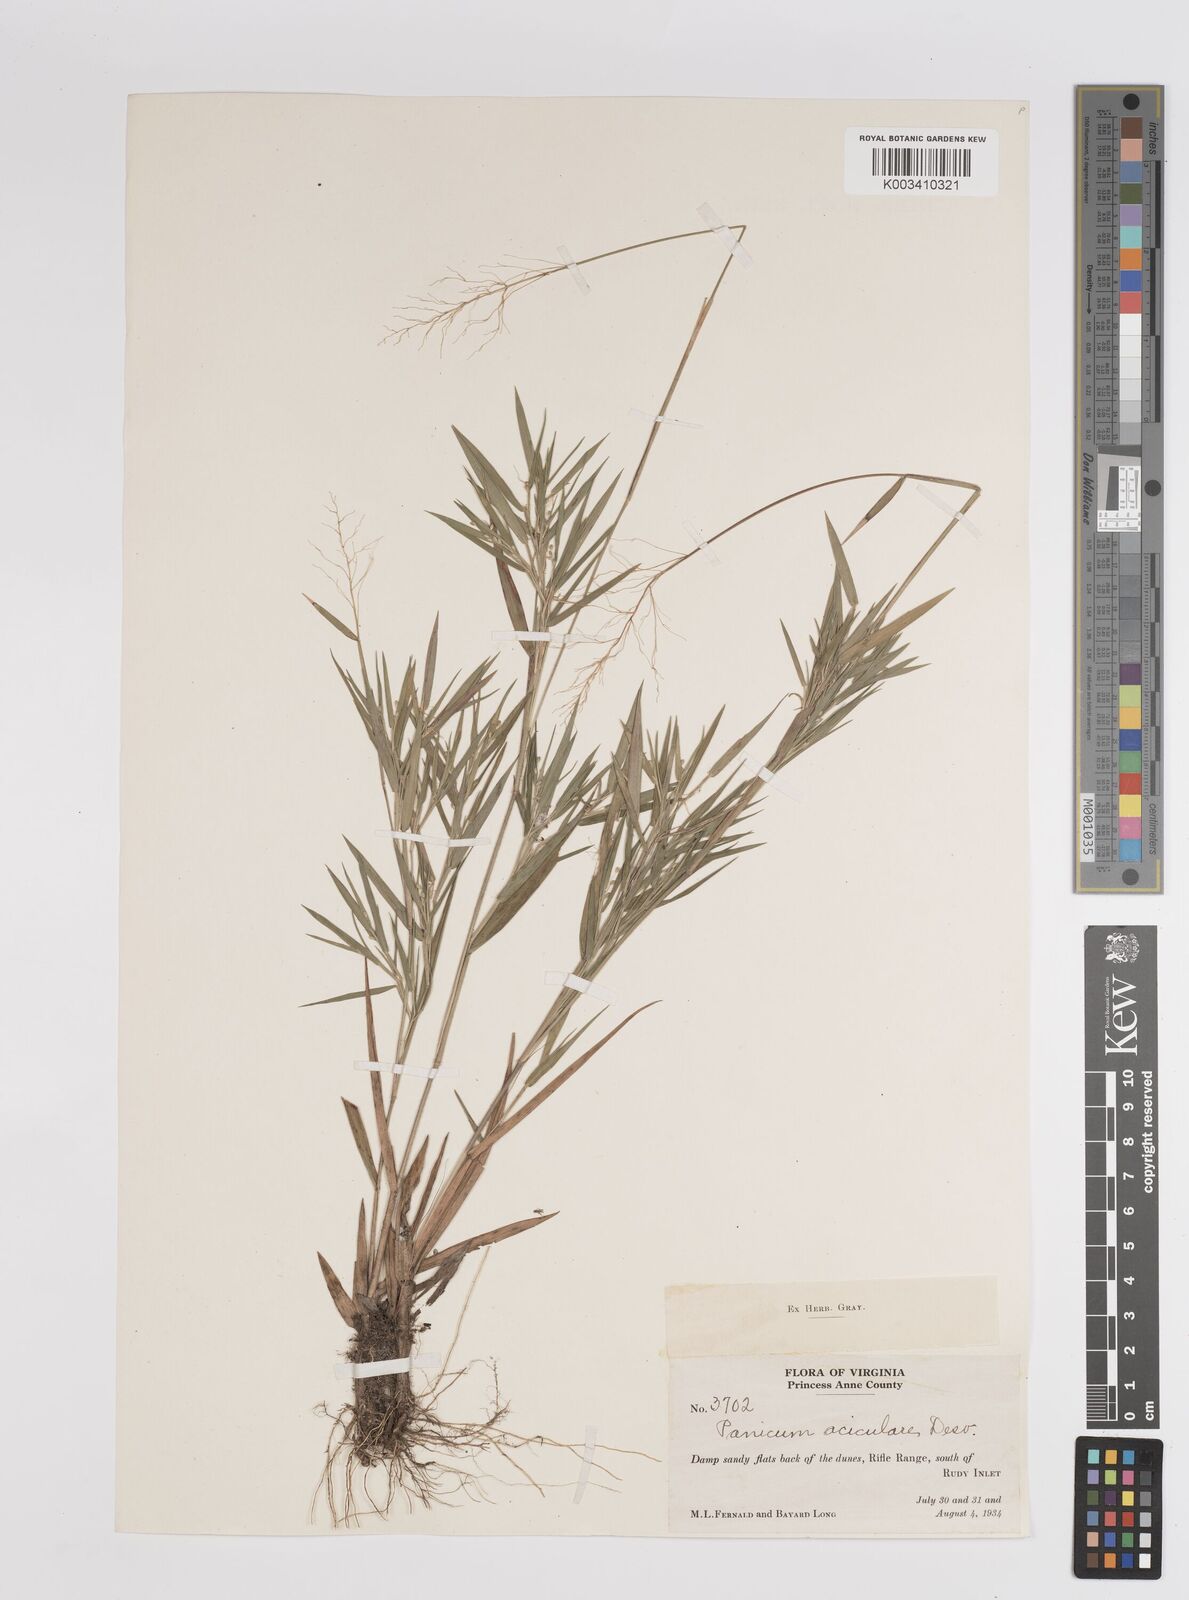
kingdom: Plantae
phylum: Tracheophyta
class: Liliopsida
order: Poales
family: Poaceae
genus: Dichanthelium
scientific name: Dichanthelium aciculare
